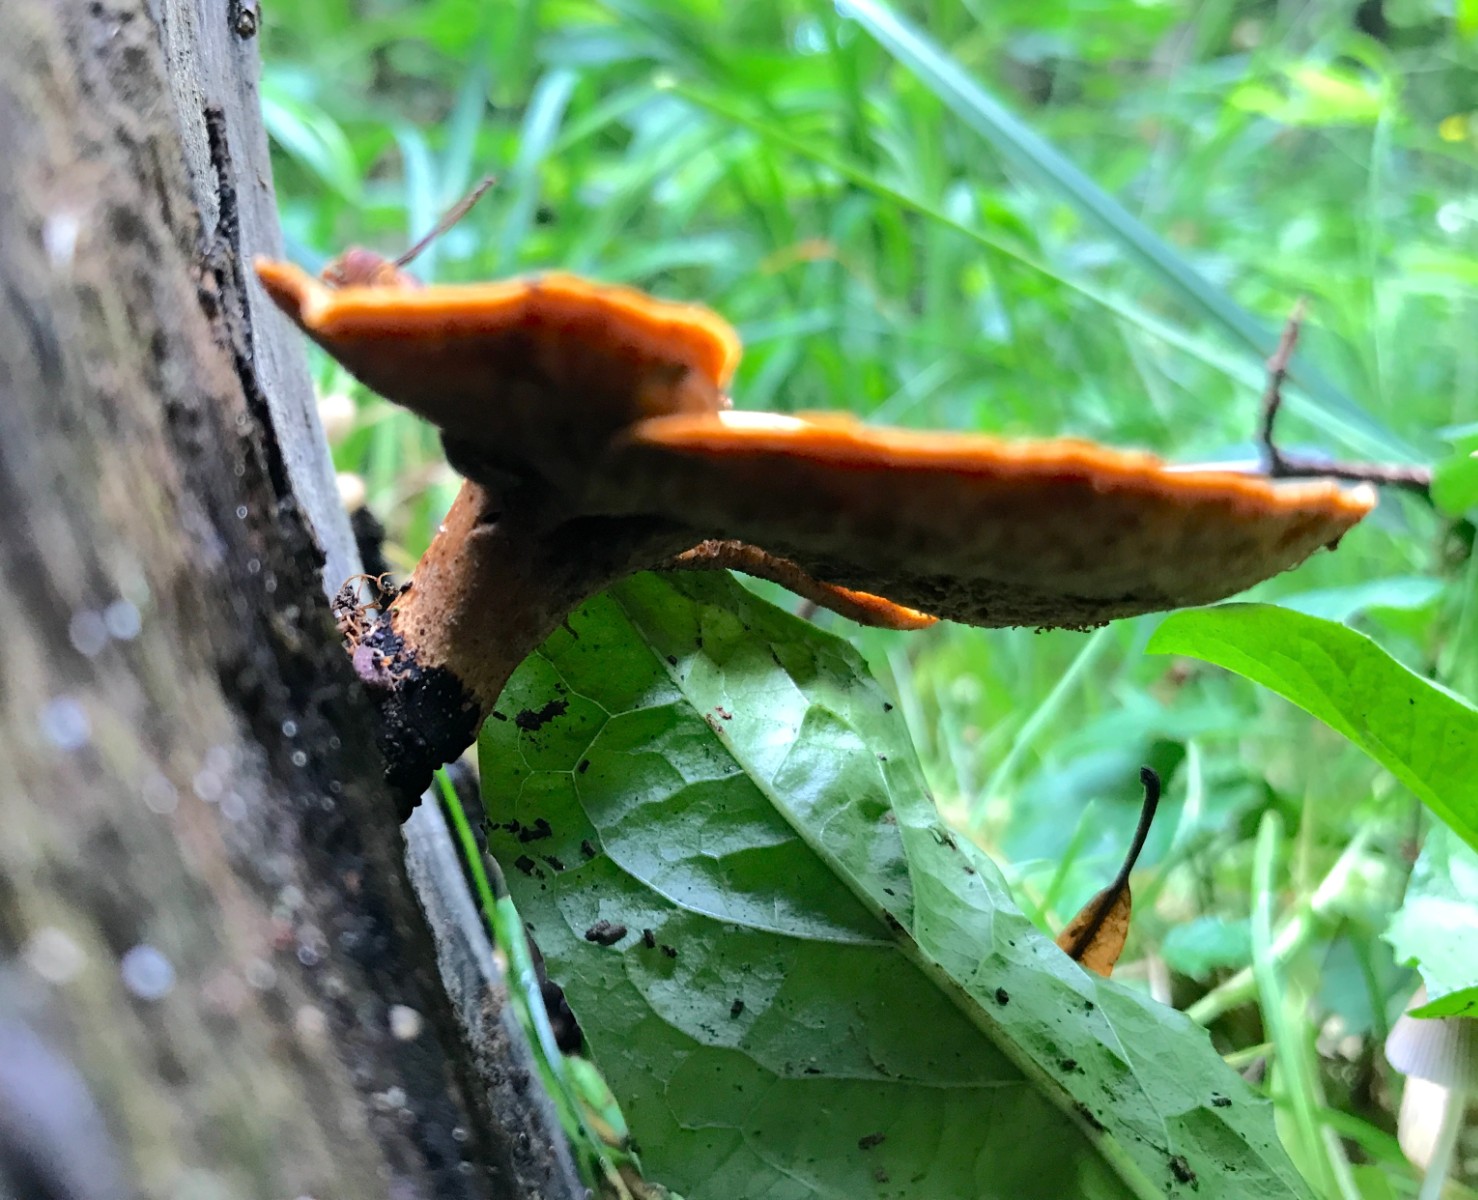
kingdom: Fungi
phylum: Basidiomycota
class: Agaricomycetes
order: Polyporales
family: Polyporaceae
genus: Cerioporus
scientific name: Cerioporus varius
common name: foranderlig stilkporesvamp
